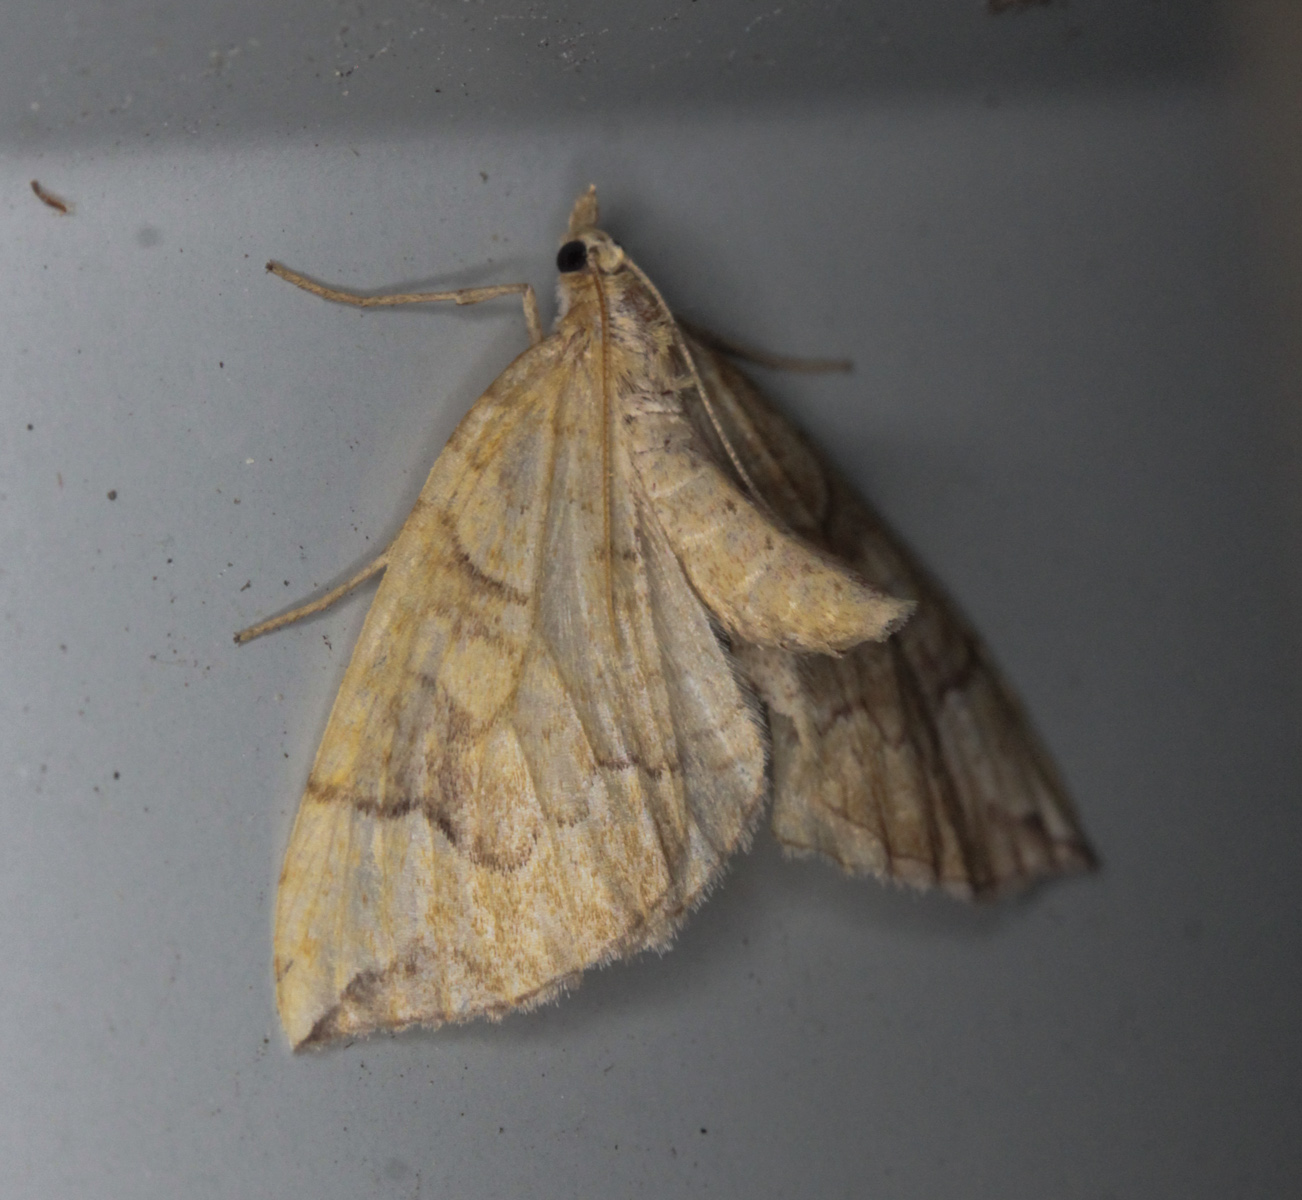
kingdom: Animalia
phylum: Arthropoda
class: Insecta
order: Lepidoptera
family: Geometridae
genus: Eulithis
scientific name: Eulithis populata
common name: Northern spinach
